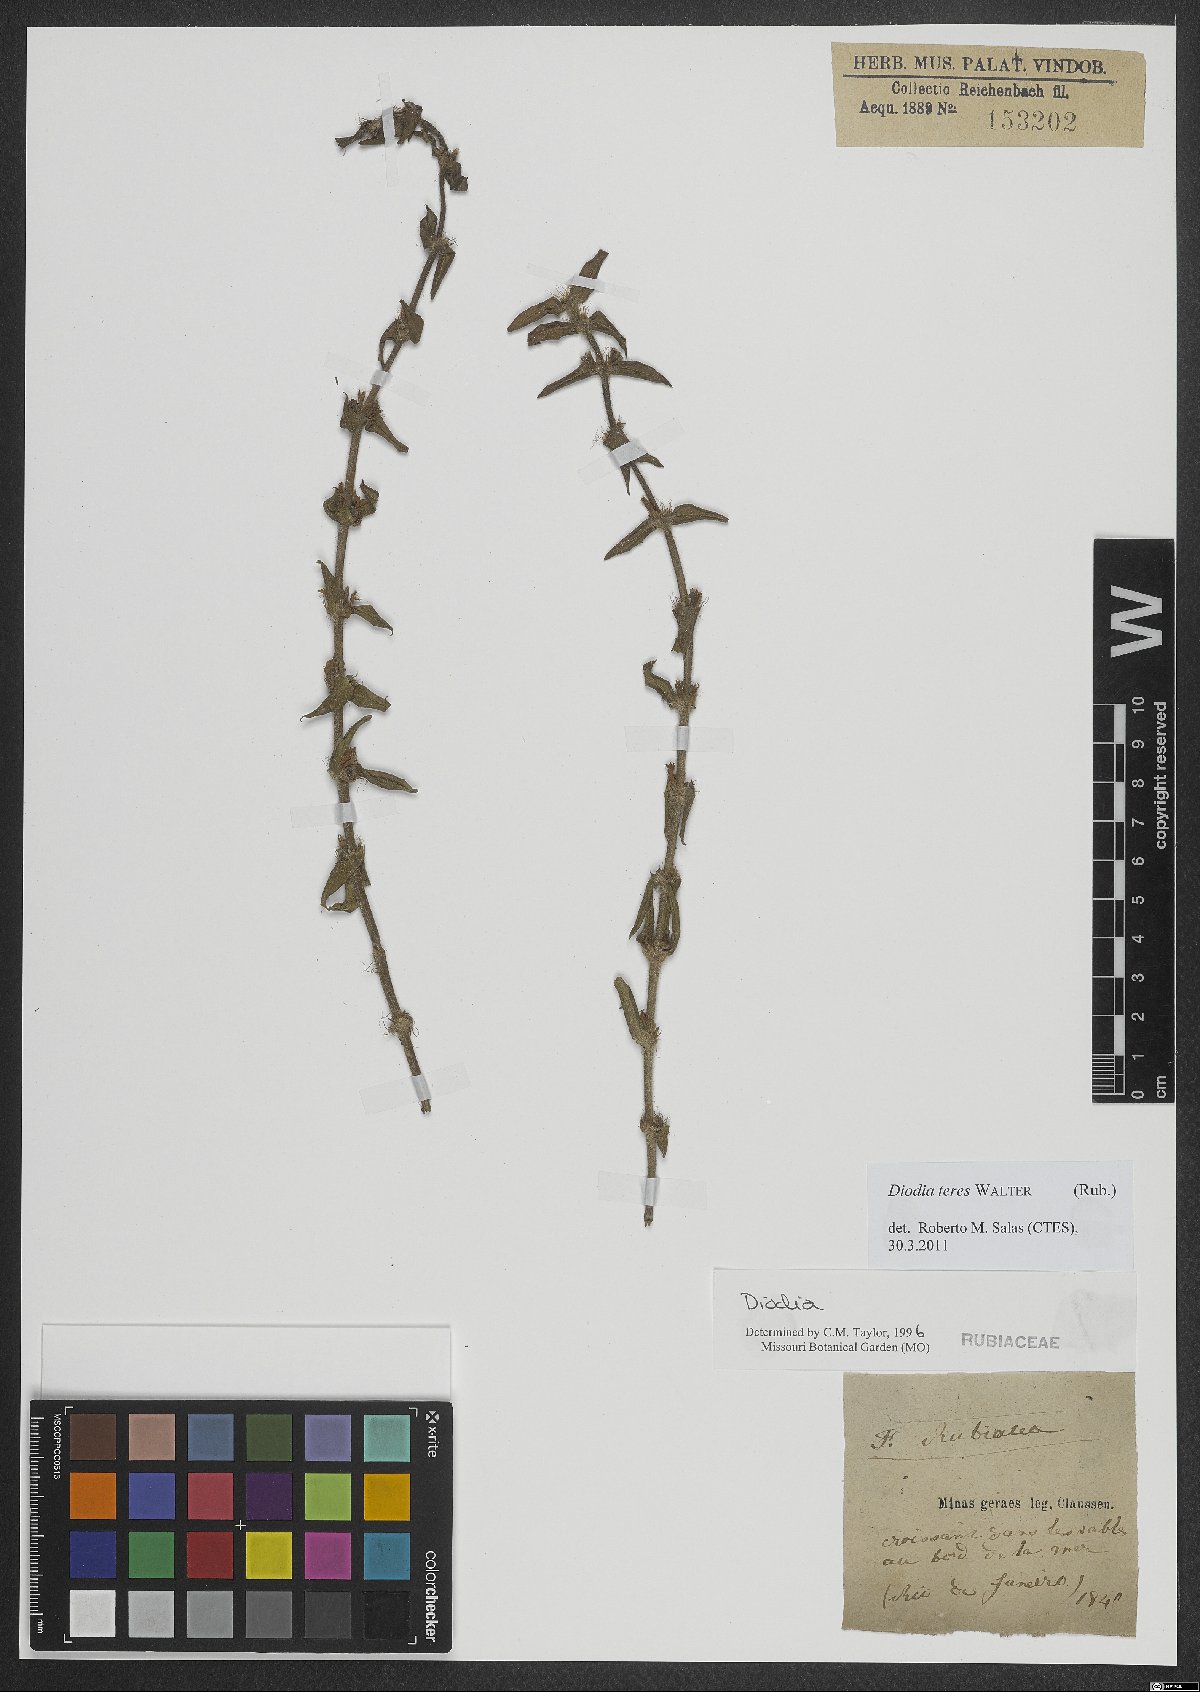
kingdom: Plantae
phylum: Tracheophyta
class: Magnoliopsida
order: Gentianales
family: Rubiaceae
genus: Hexasepalum
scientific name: Hexasepalum teres
